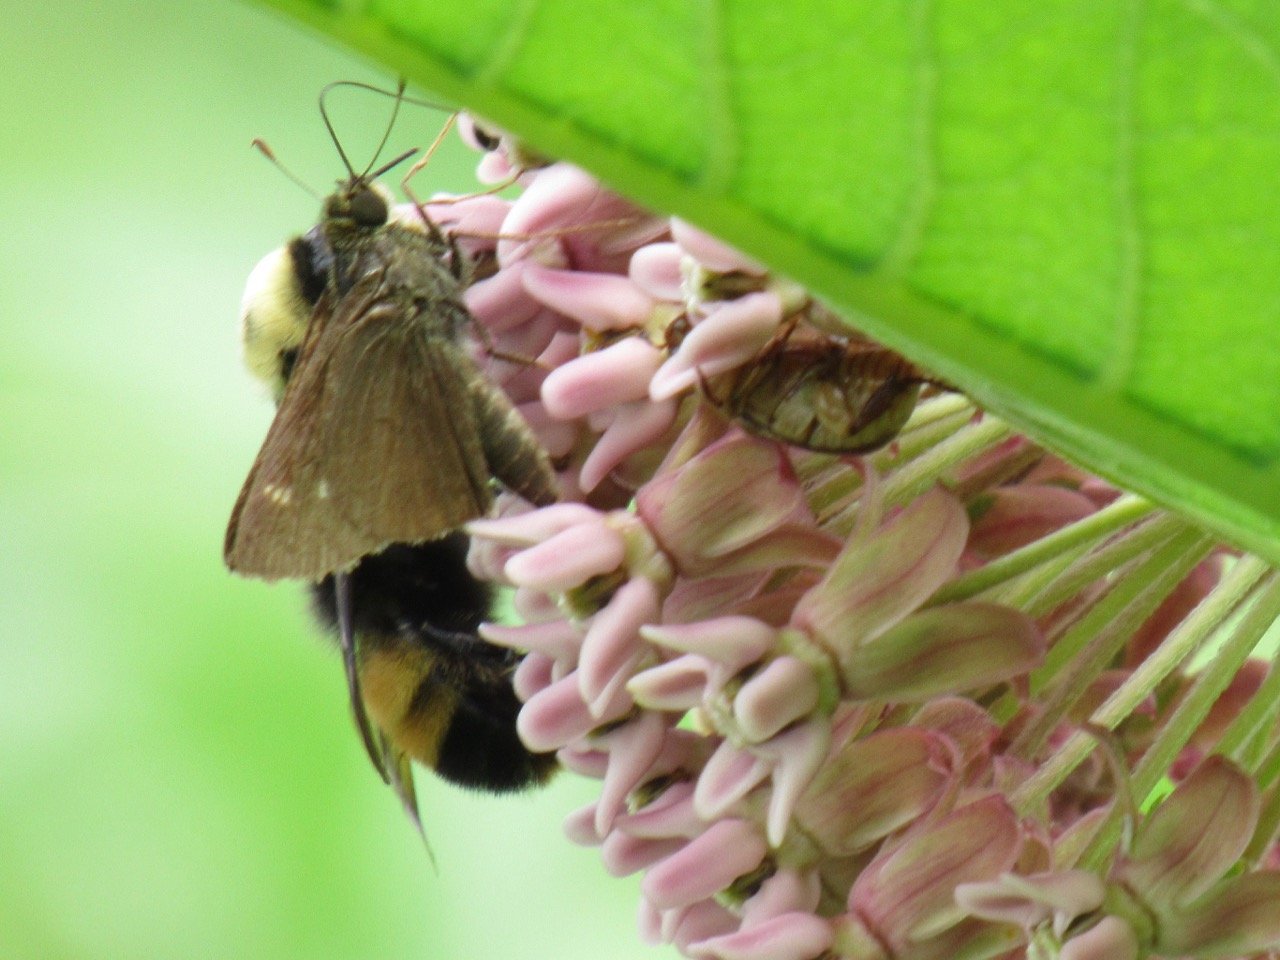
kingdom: Animalia
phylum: Arthropoda
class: Insecta
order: Lepidoptera
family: Hesperiidae
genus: Euphyes
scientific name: Euphyes vestris
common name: Dun Skipper
